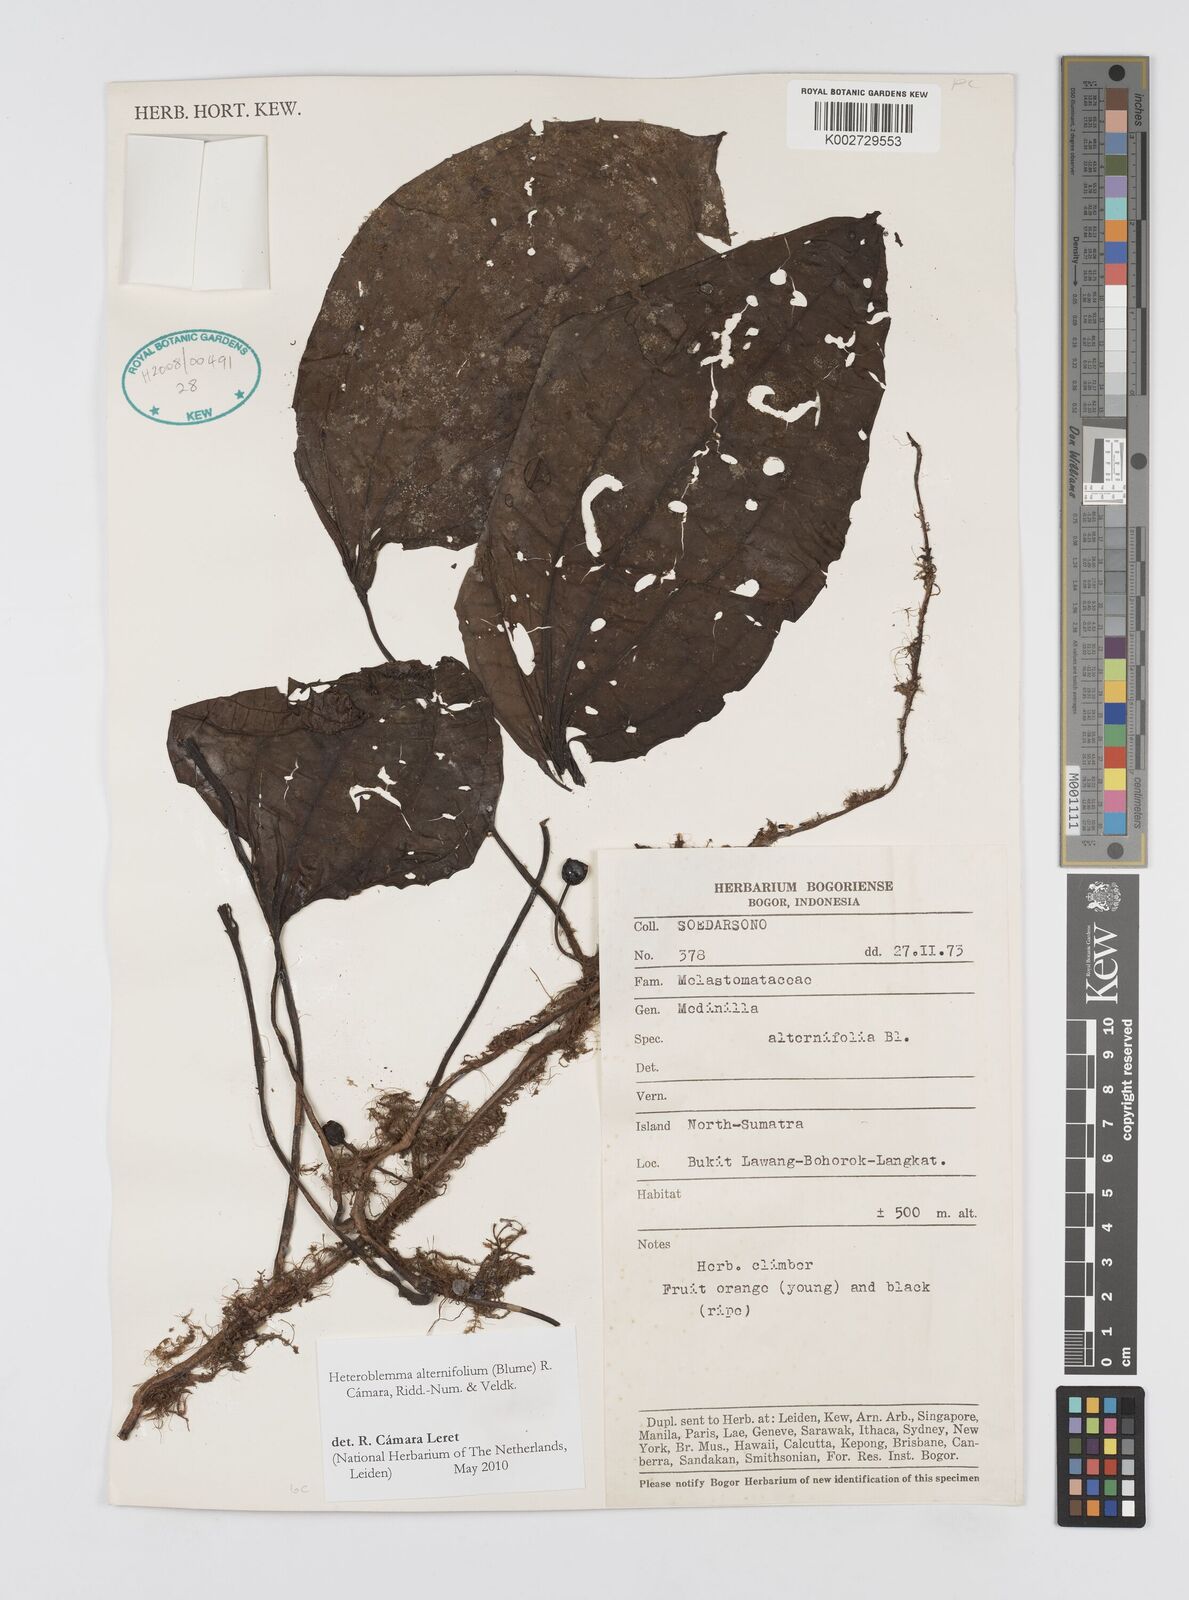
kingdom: Plantae
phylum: Tracheophyta
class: Magnoliopsida
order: Myrtales
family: Melastomataceae
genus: Heteroblemma
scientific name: Heteroblemma alternifolium
